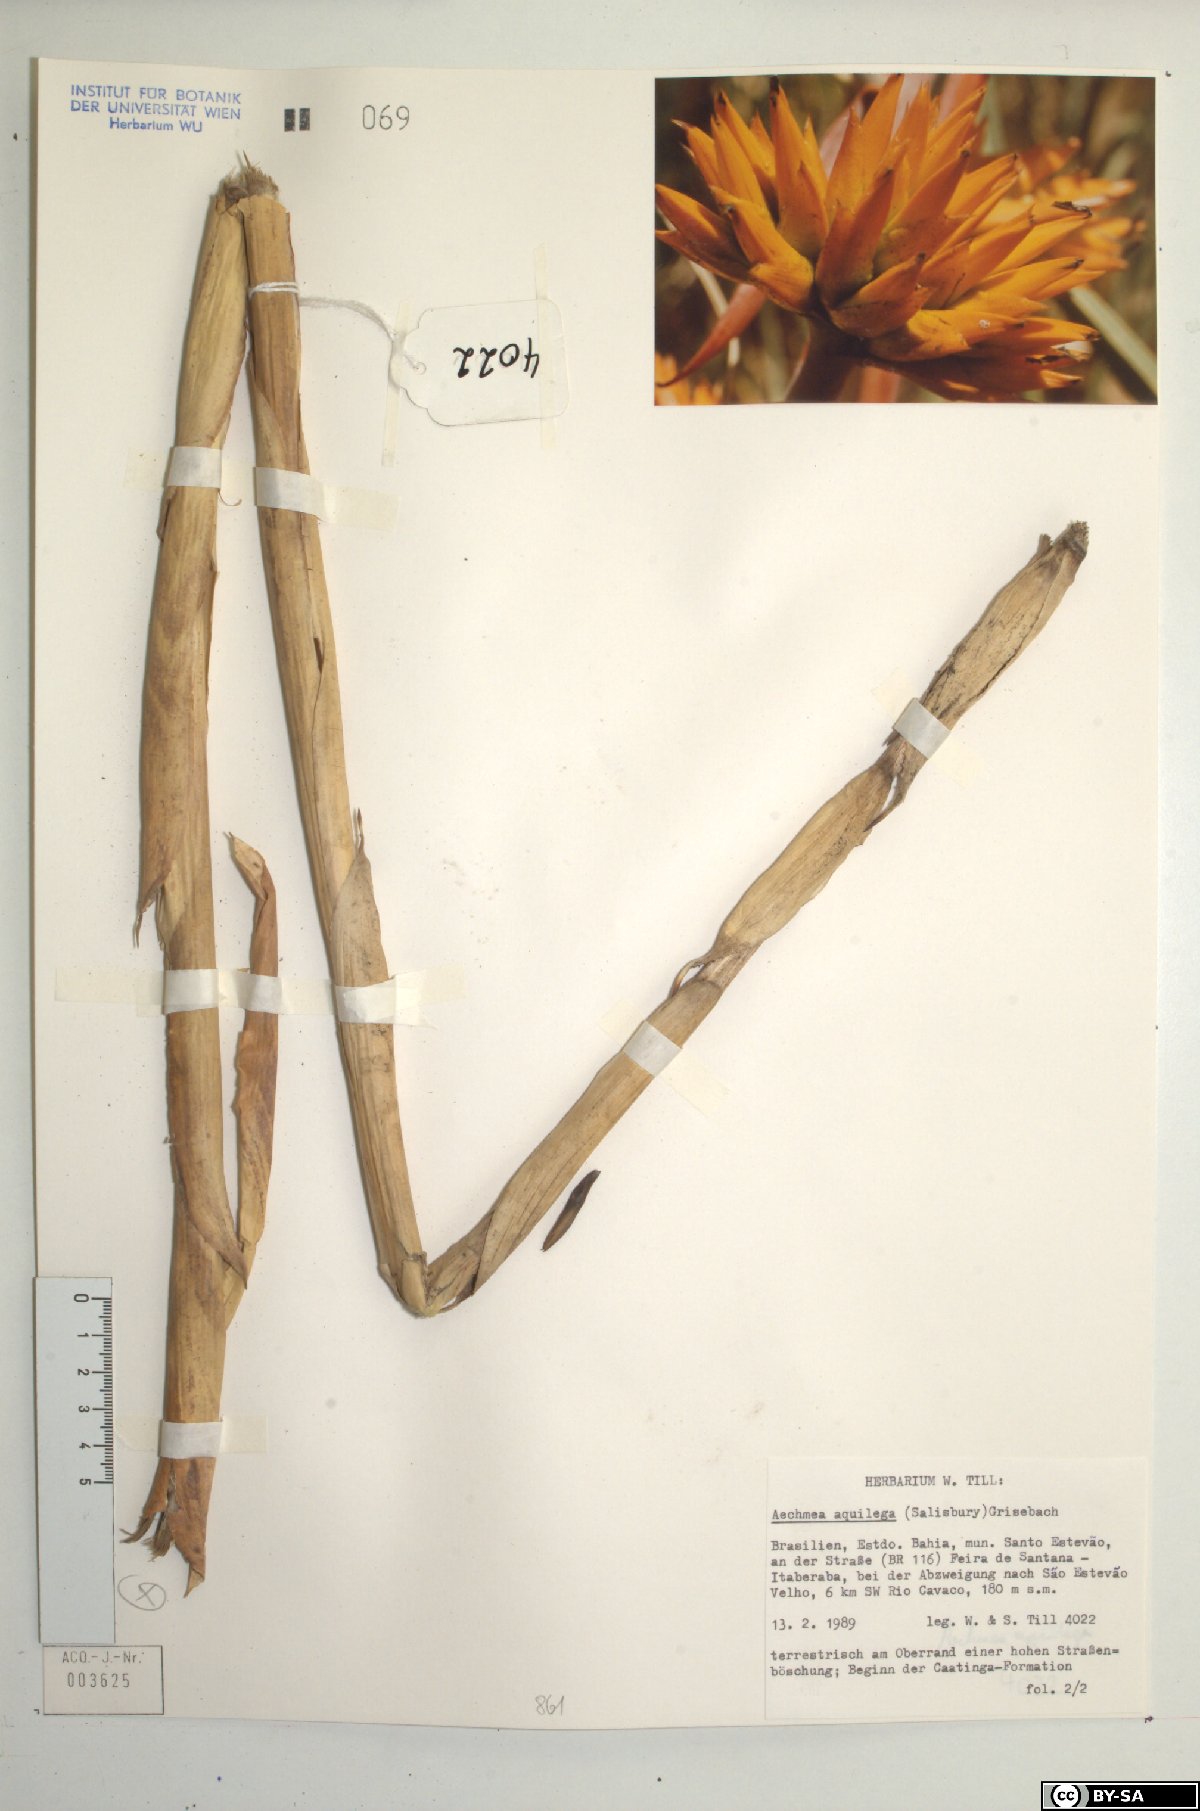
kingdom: Plantae
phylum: Tracheophyta
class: Liliopsida
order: Poales
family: Bromeliaceae
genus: Aechmea
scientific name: Aechmea aquilega
